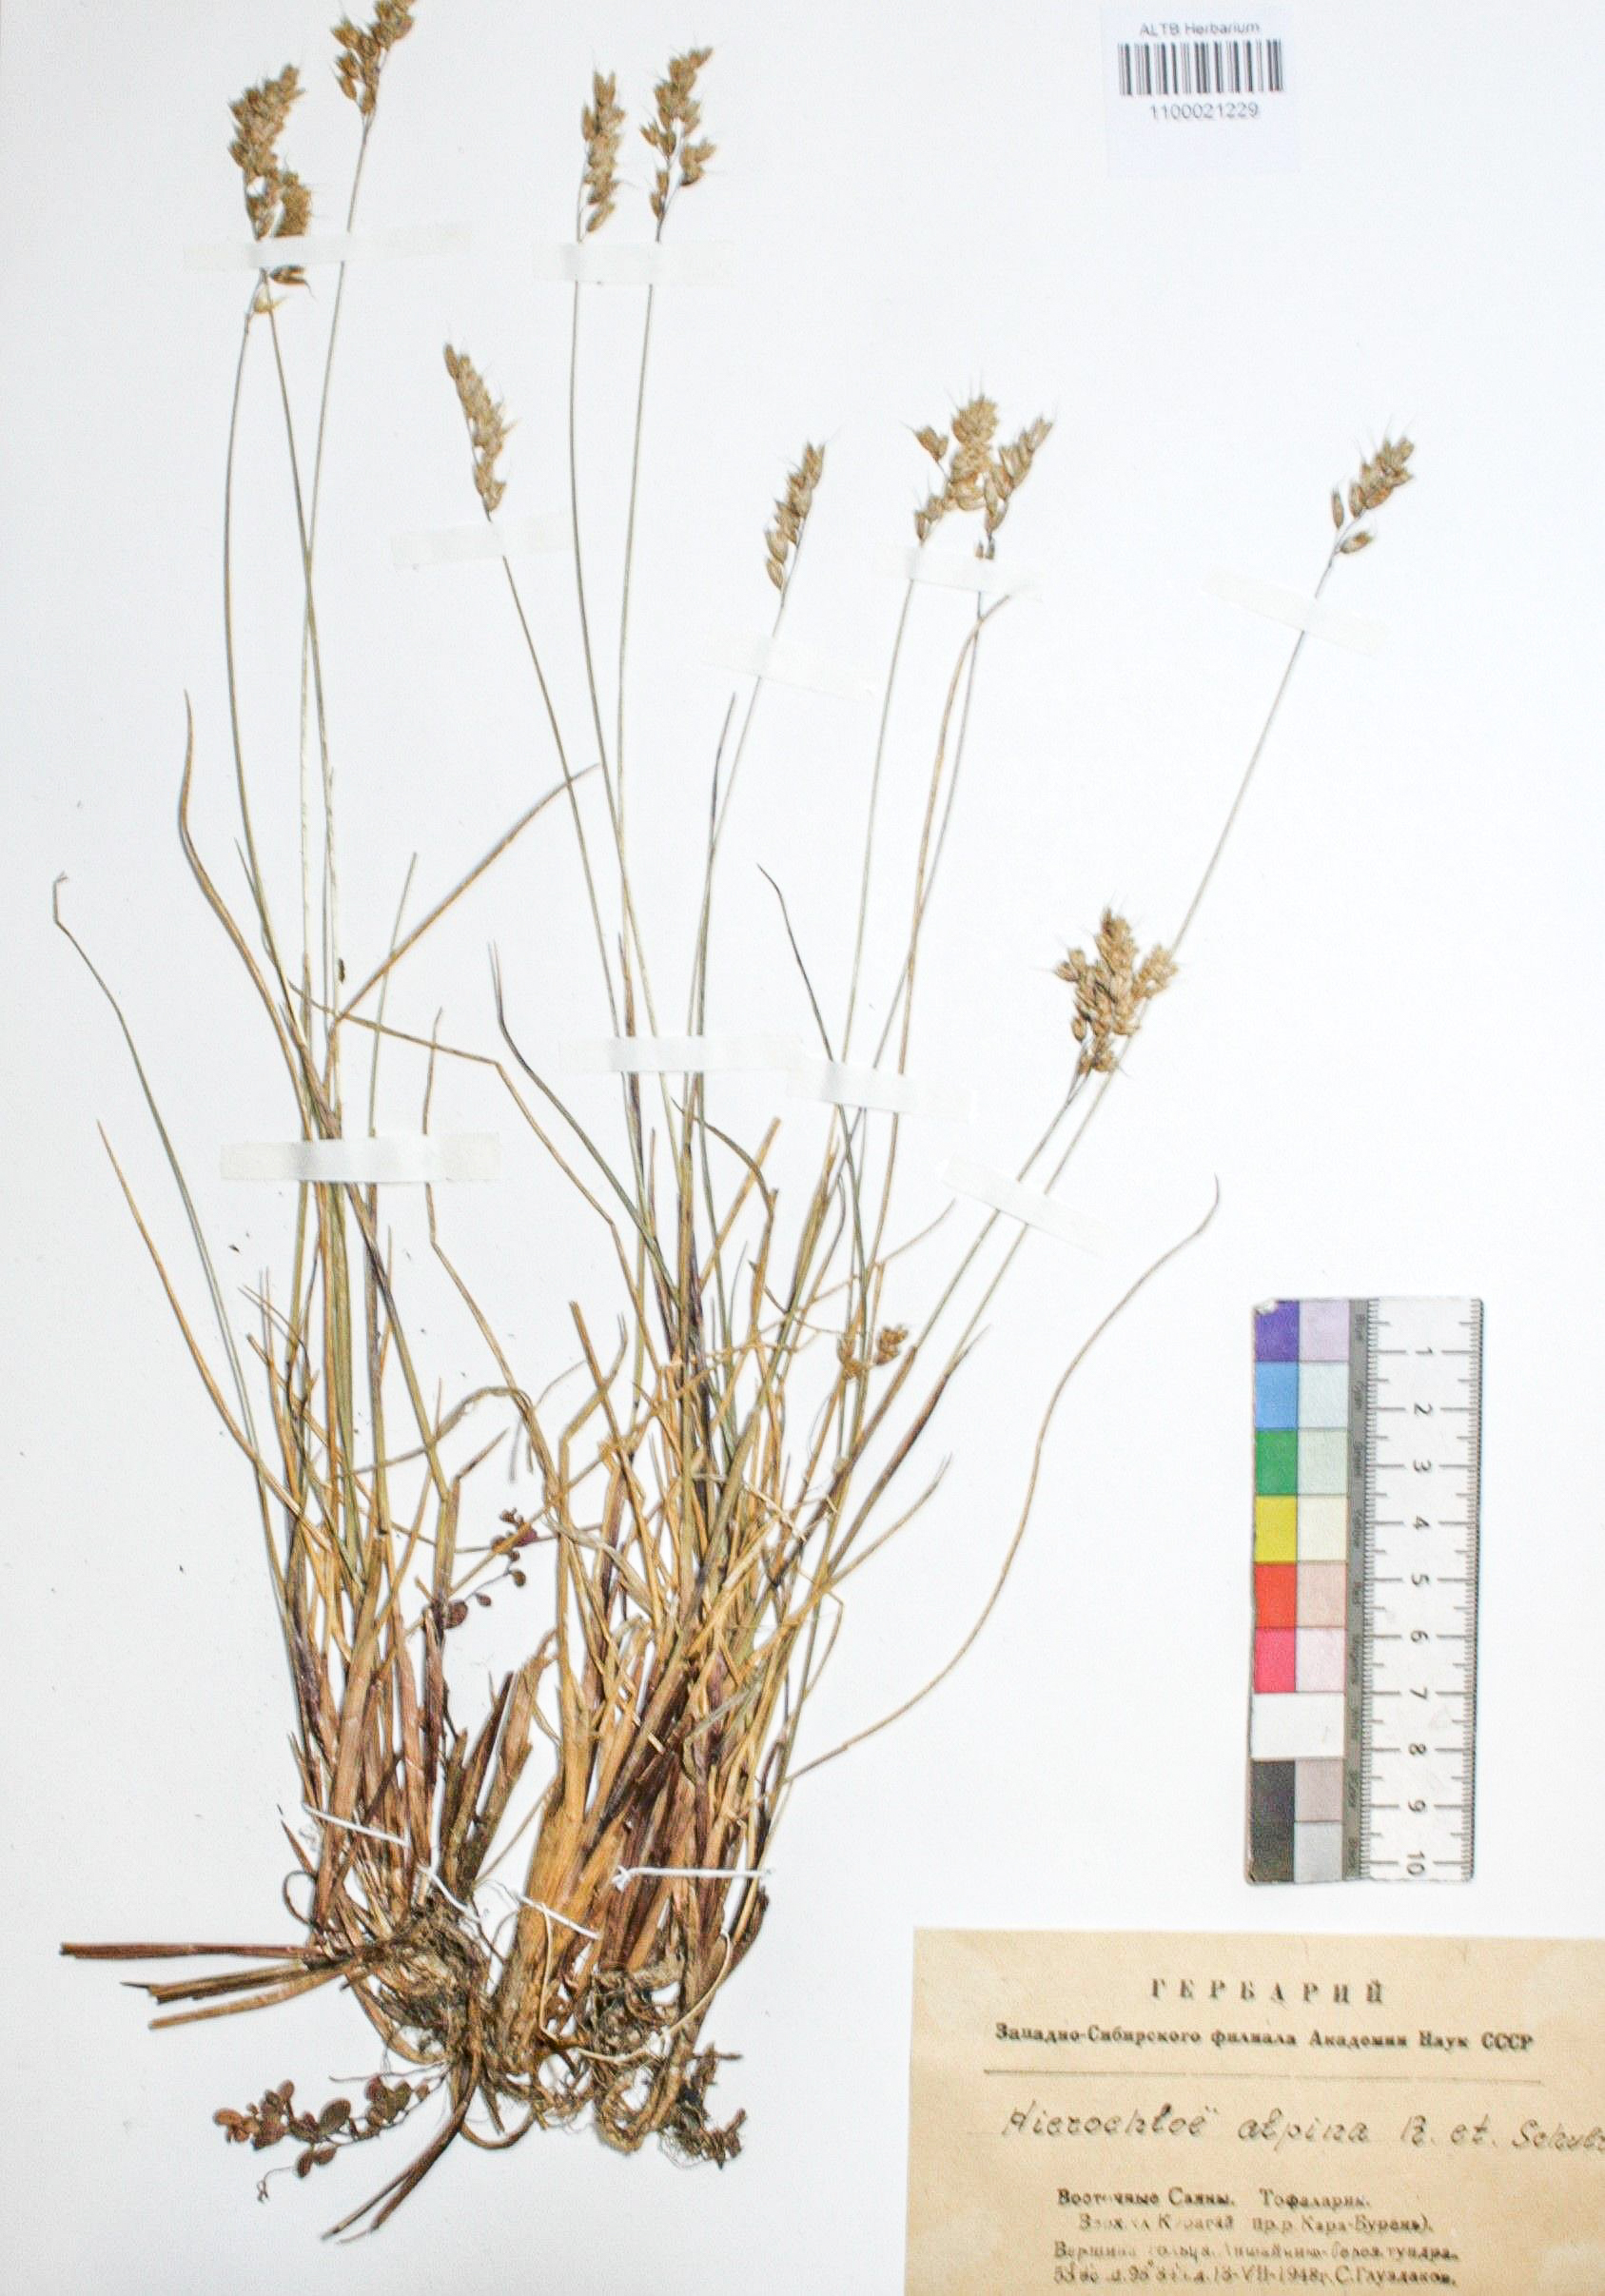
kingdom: Plantae
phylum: Tracheophyta
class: Liliopsida
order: Poales
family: Poaceae
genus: Anthoxanthum
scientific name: Anthoxanthum monticola
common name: Alpine sweetgrass
